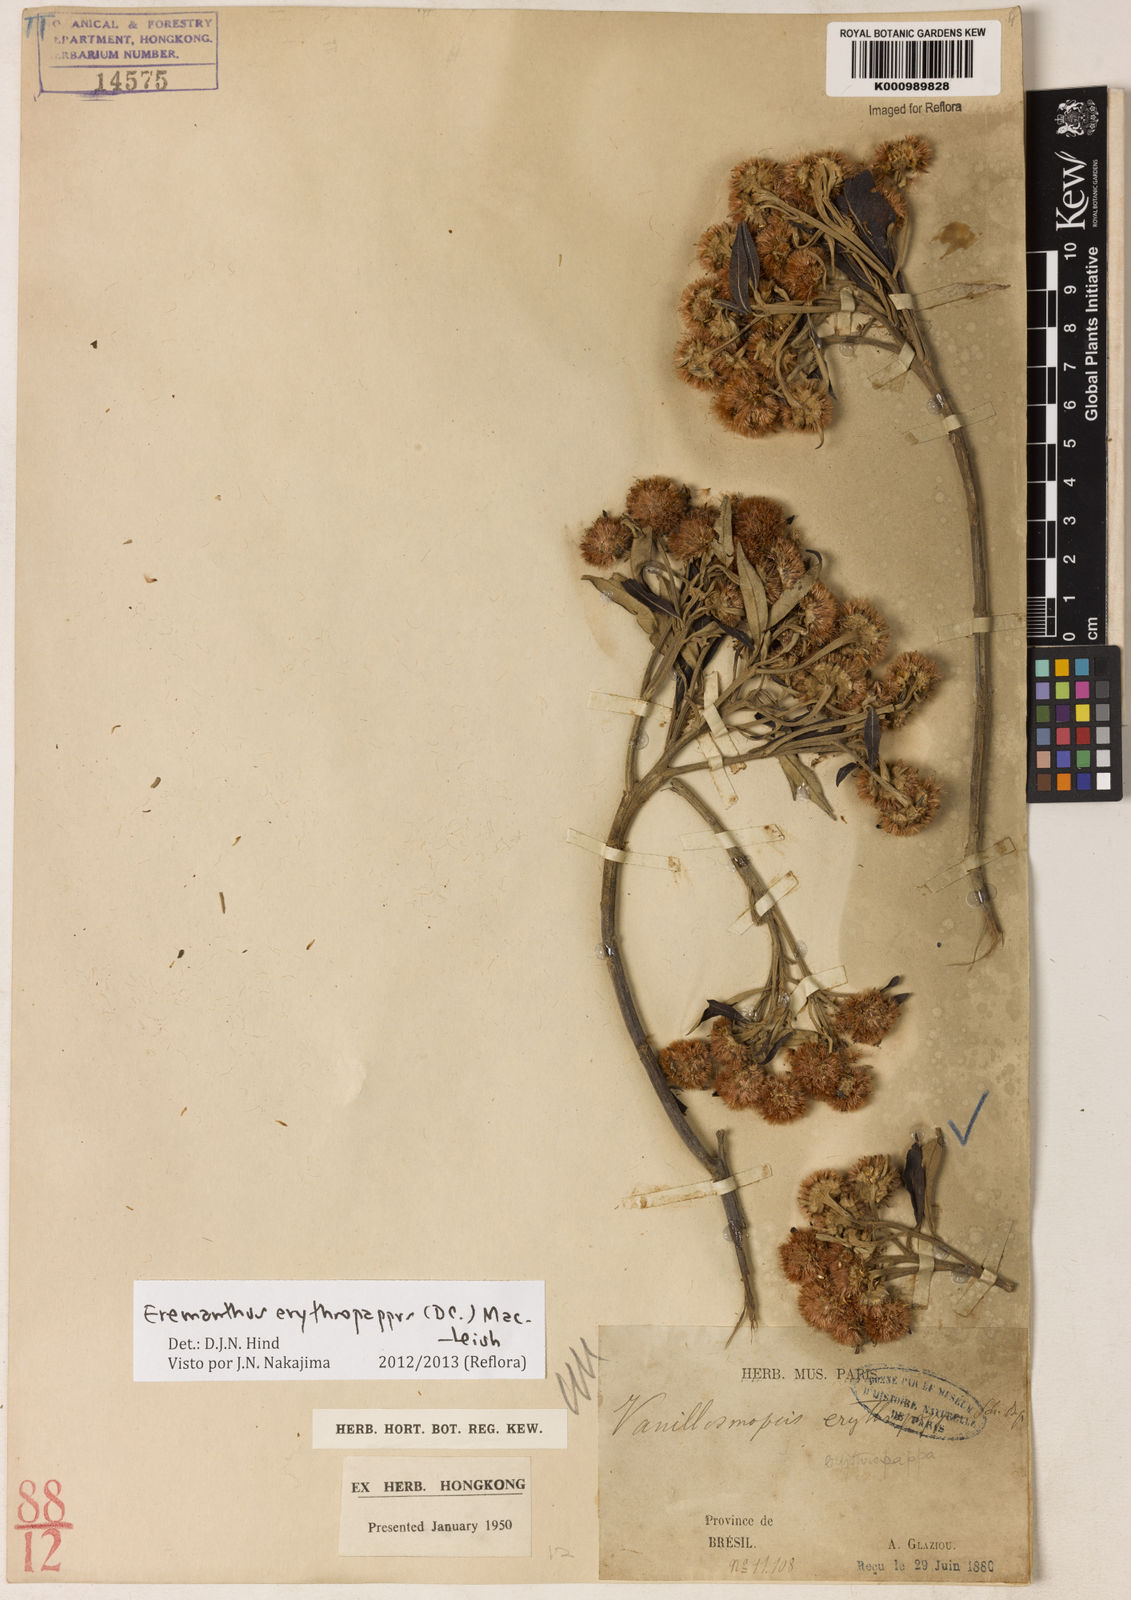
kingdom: Plantae
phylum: Tracheophyta
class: Magnoliopsida
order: Asterales
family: Asteraceae
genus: Eremanthus
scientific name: Eremanthus erythropappus
